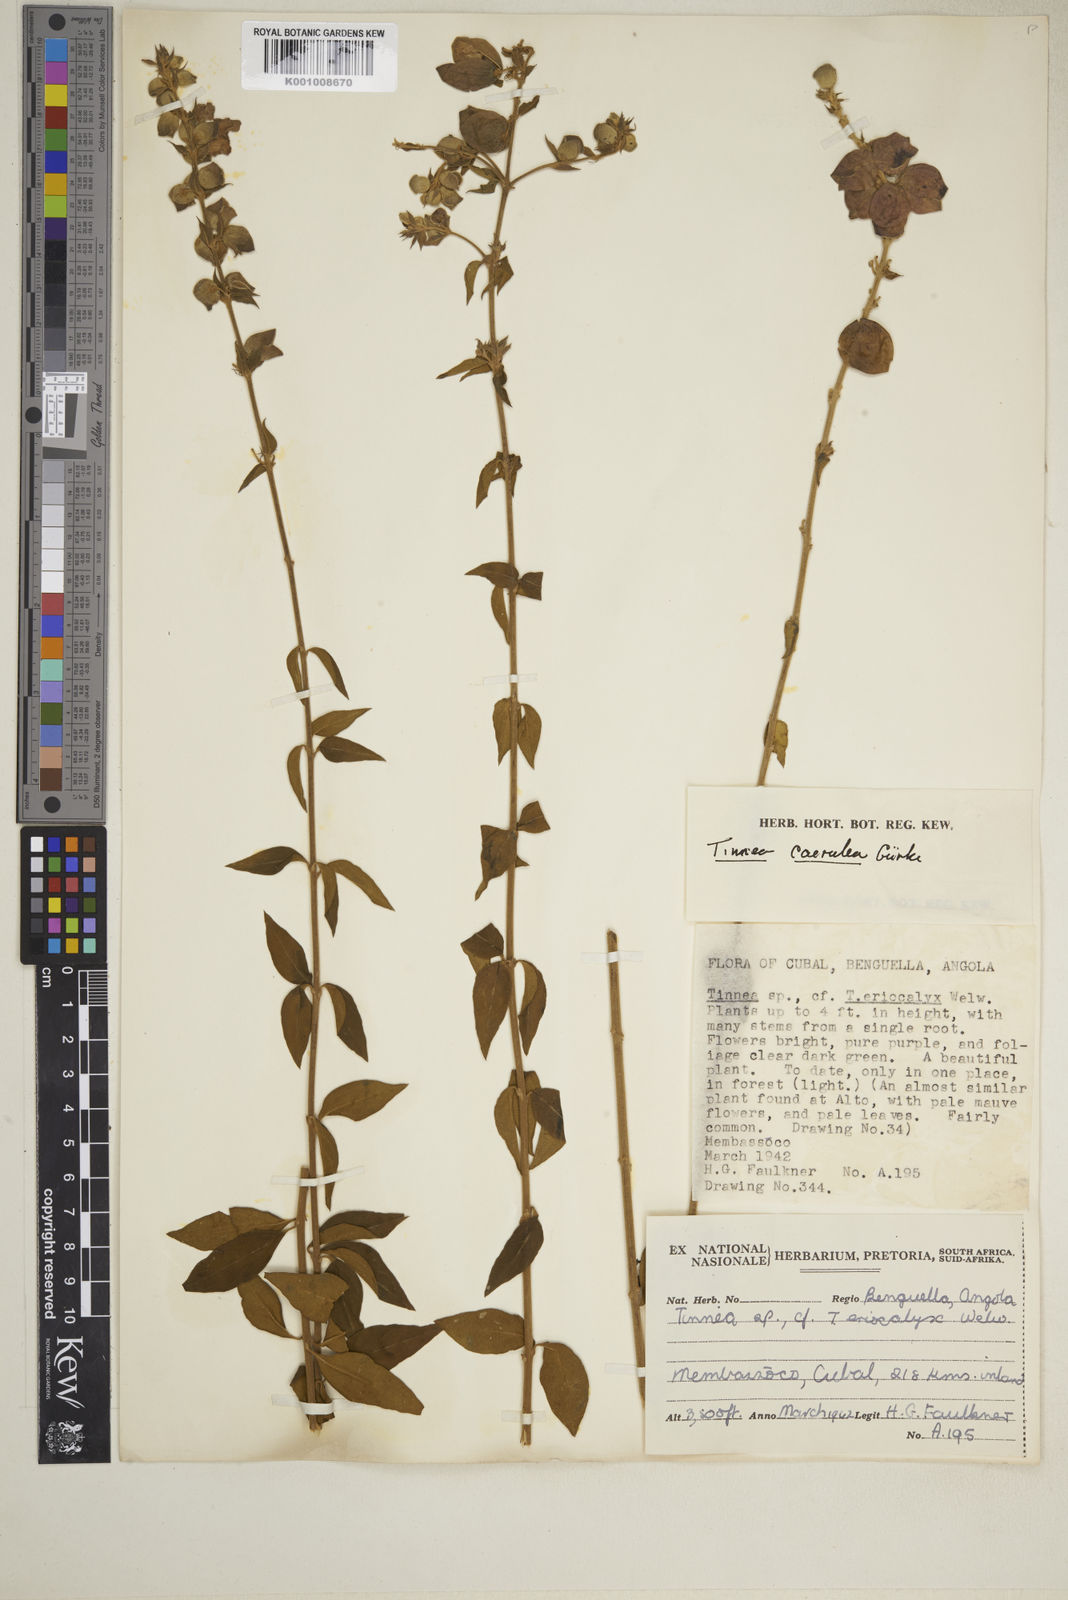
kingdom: Plantae
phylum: Tracheophyta
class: Magnoliopsida
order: Lamiales
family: Lamiaceae
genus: Tinnea
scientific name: Tinnea
